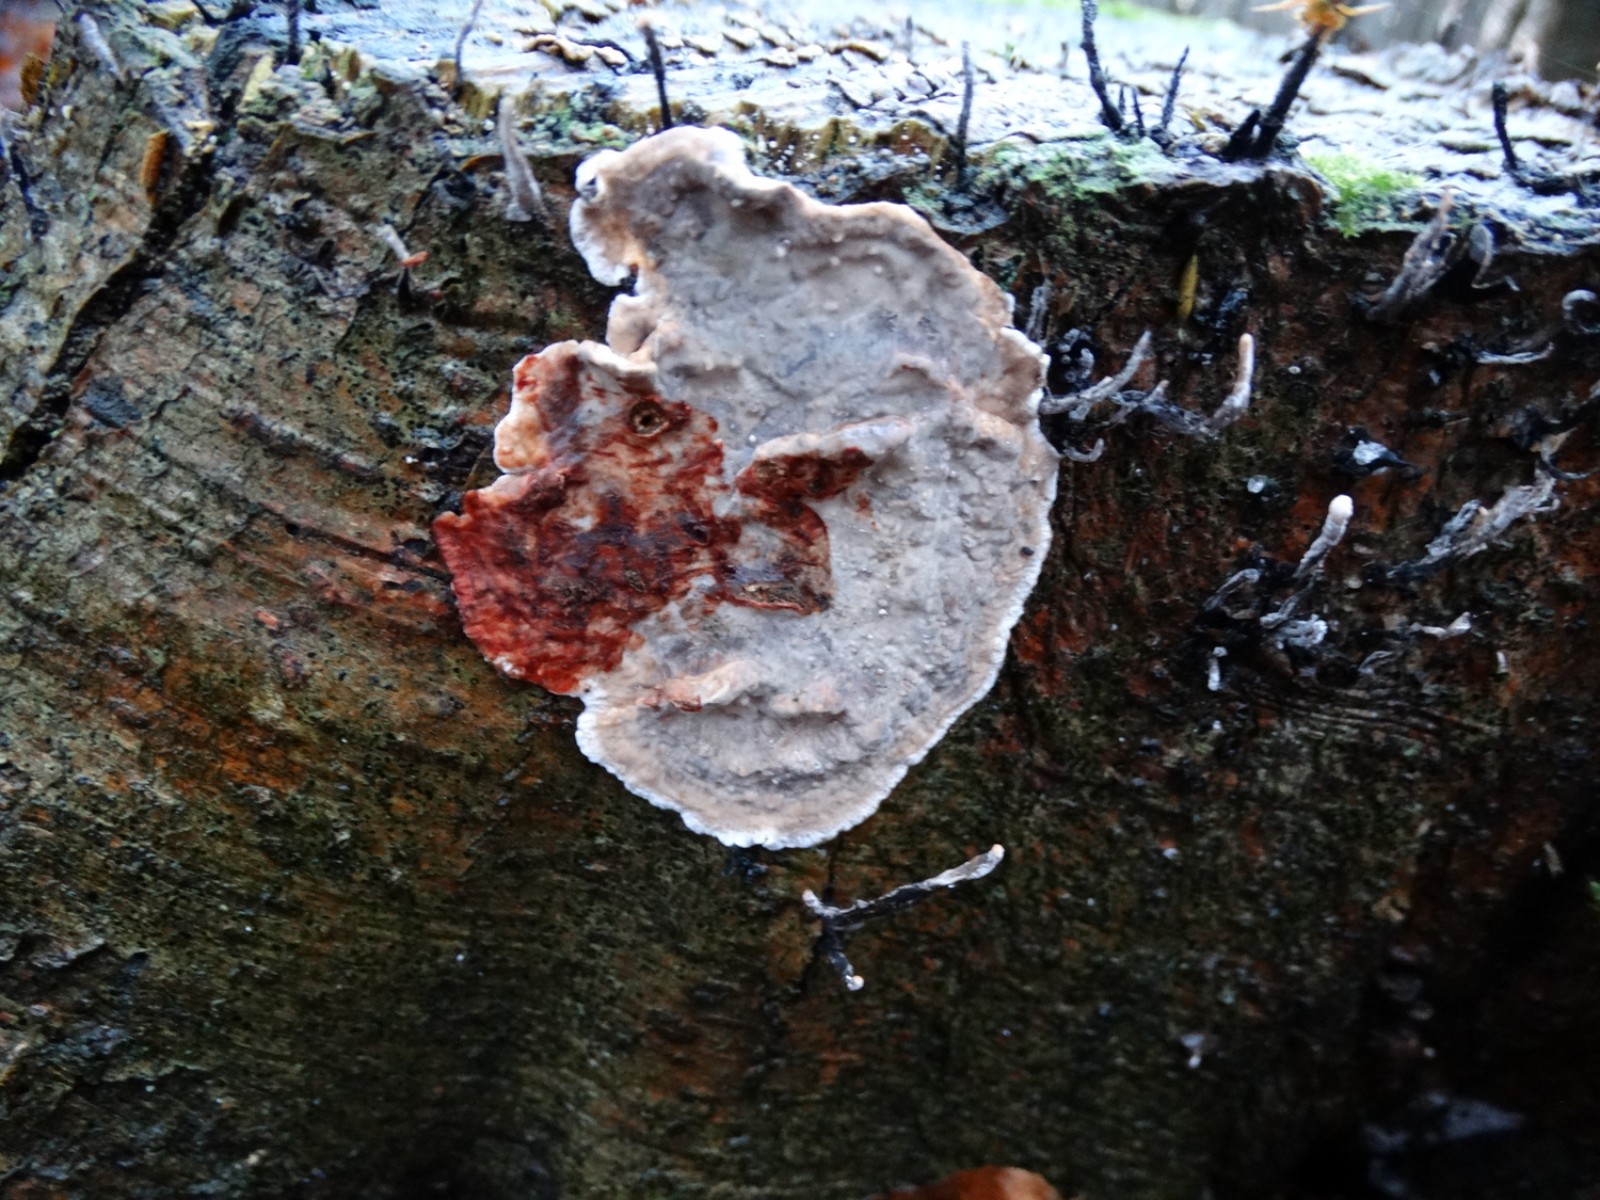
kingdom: Fungi
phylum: Basidiomycota
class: Agaricomycetes
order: Russulales
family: Stereaceae
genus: Stereum
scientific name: Stereum rugosum
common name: rynket lædersvamp
